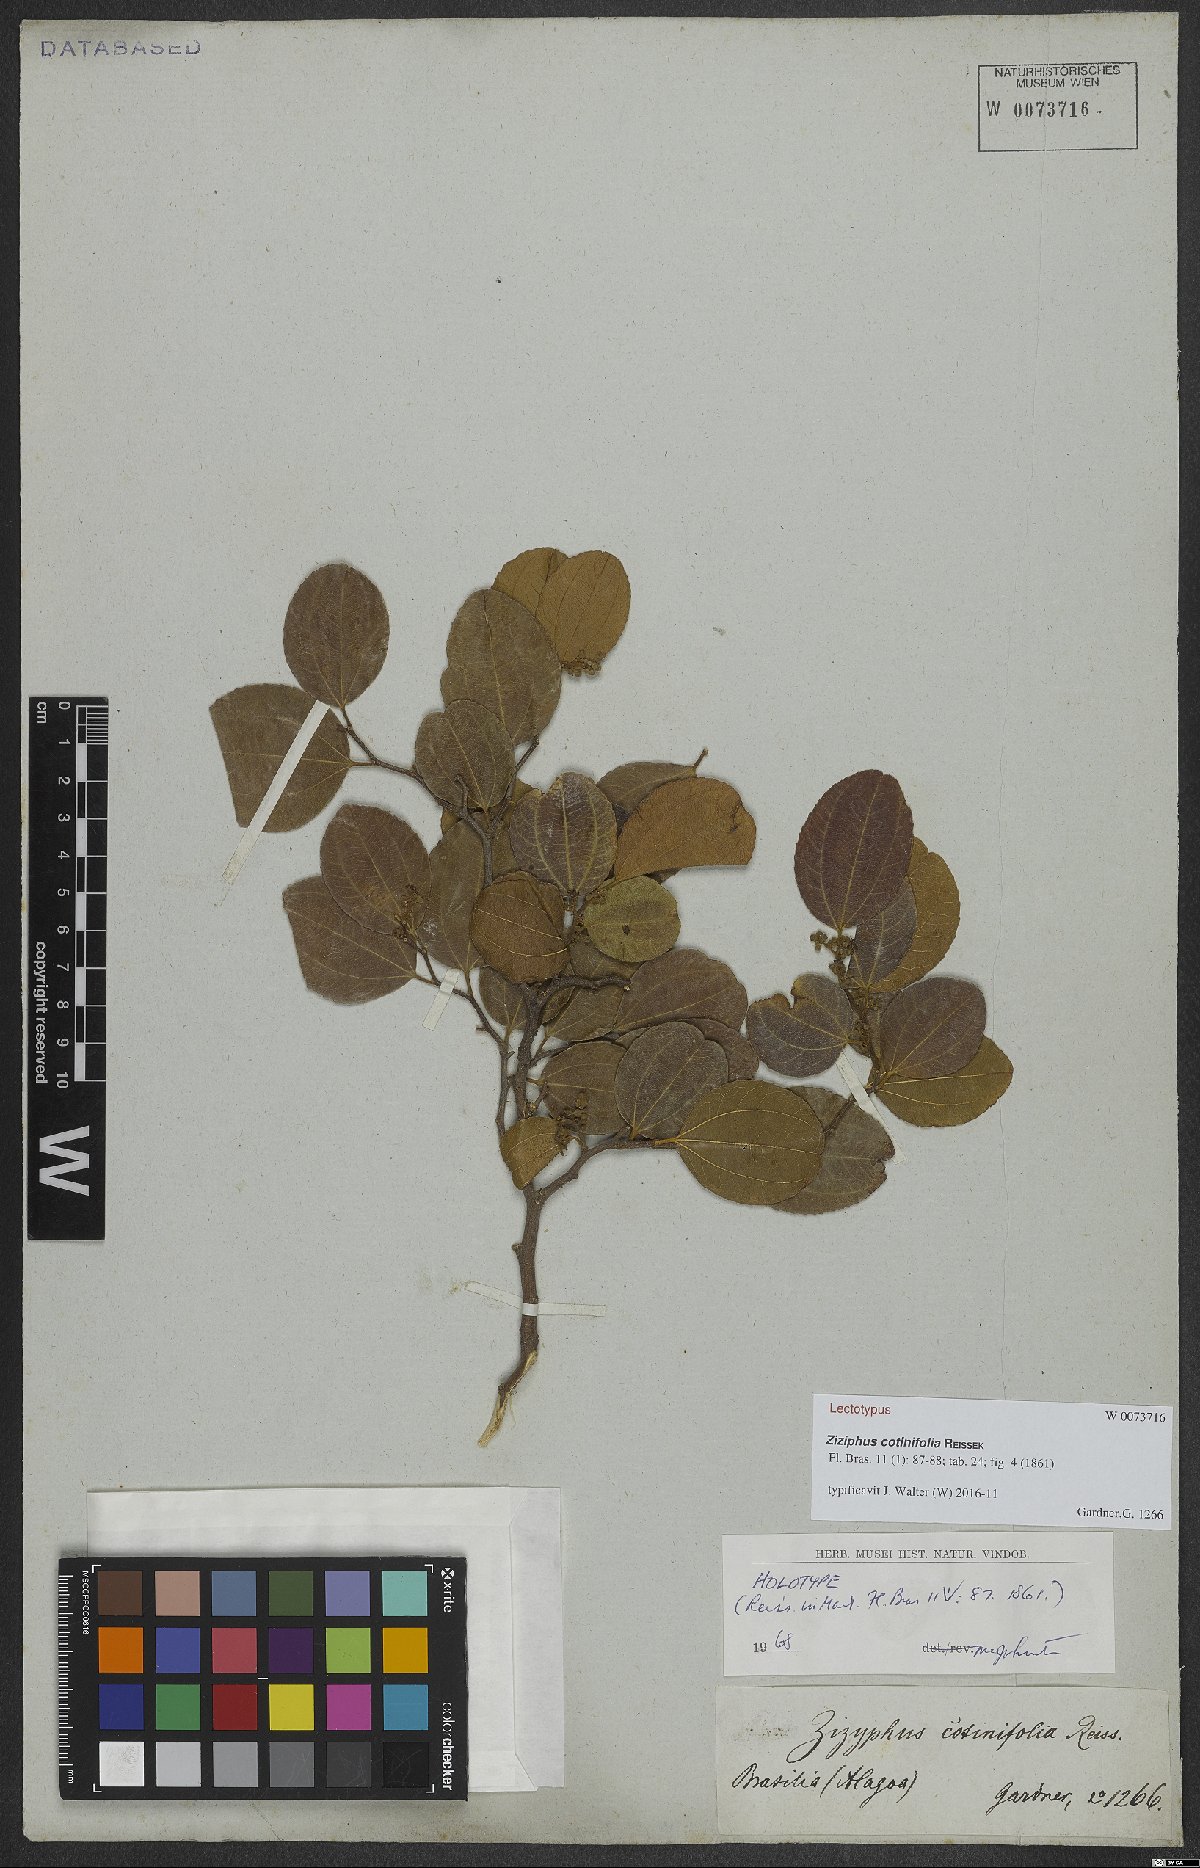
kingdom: Plantae
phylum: Tracheophyta
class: Magnoliopsida
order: Rosales
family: Rhamnaceae
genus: Sarcomphalus
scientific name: Sarcomphalus cotinifolius
